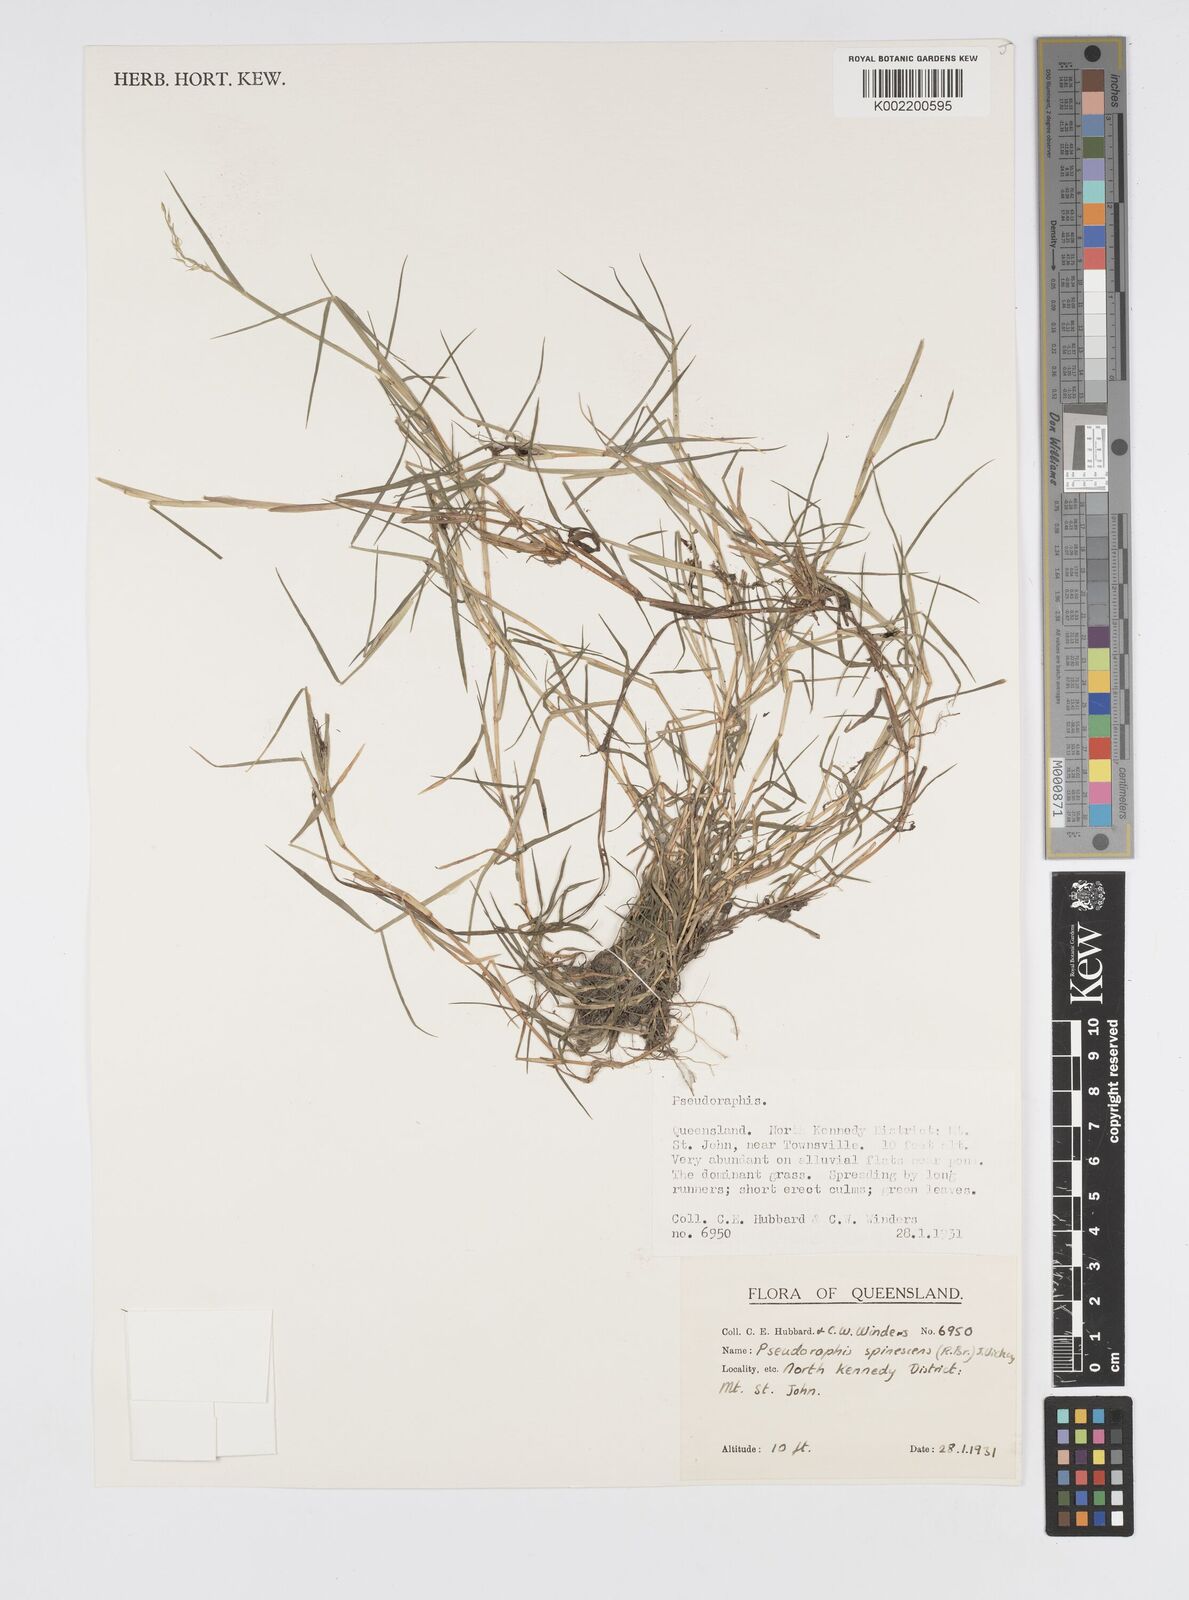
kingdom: Plantae
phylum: Tracheophyta
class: Liliopsida
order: Poales
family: Poaceae
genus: Pseudoraphis
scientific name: Pseudoraphis spinescens
